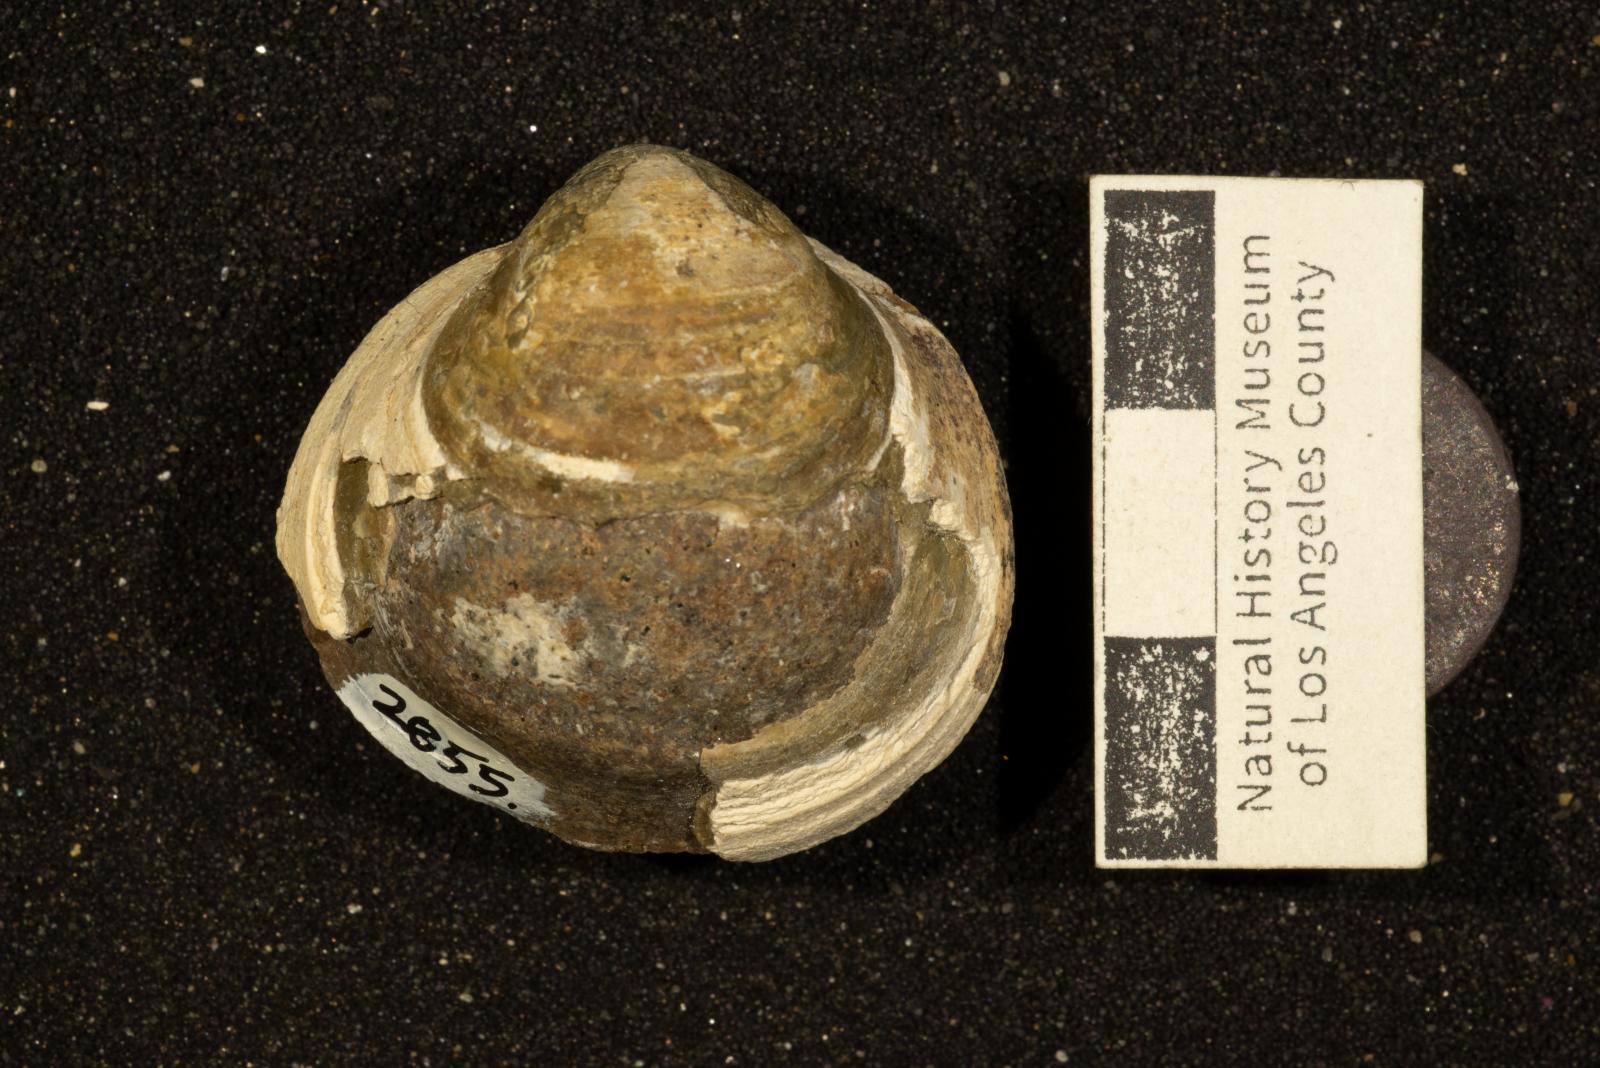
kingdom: Animalia
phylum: Mollusca
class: Bivalvia
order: Adapedonta
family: Edmondiidae
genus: Clisocolus
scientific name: Clisocolus
